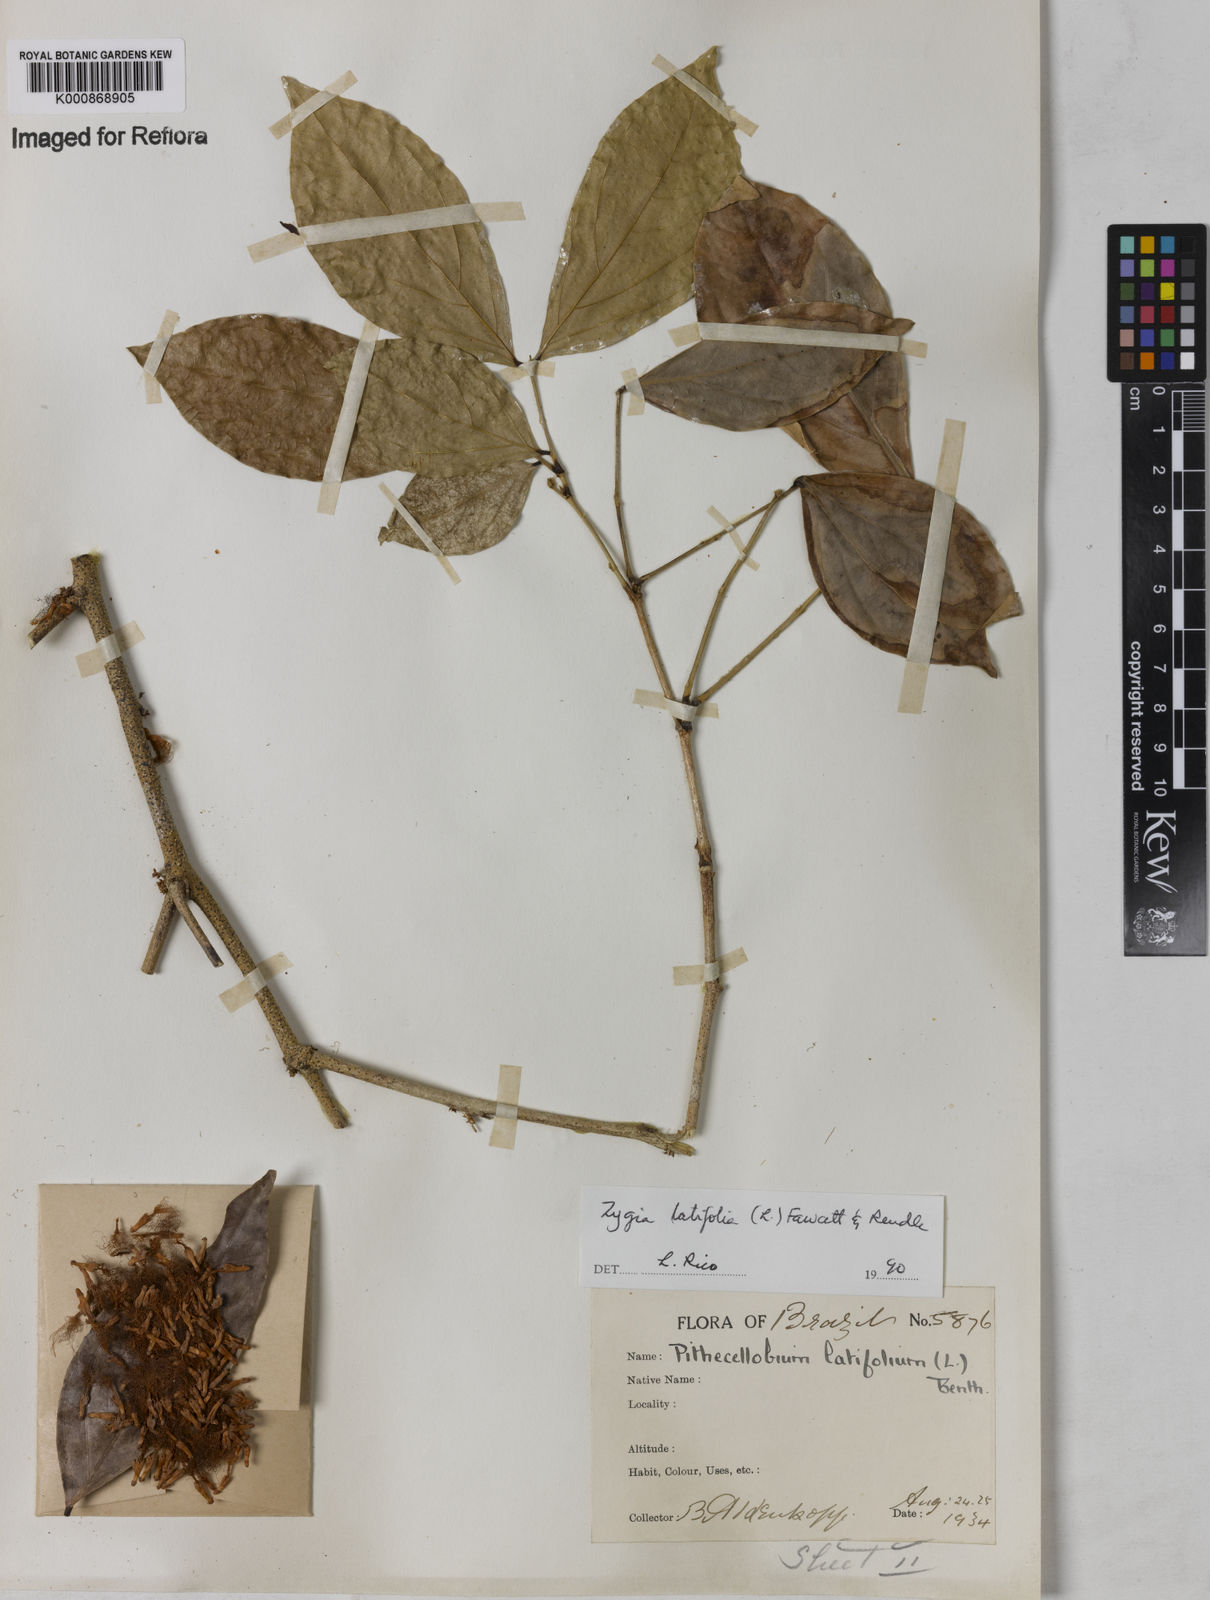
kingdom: Plantae
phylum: Tracheophyta
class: Magnoliopsida
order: Fabales
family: Fabaceae
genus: Zygia
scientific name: Zygia latifolia
